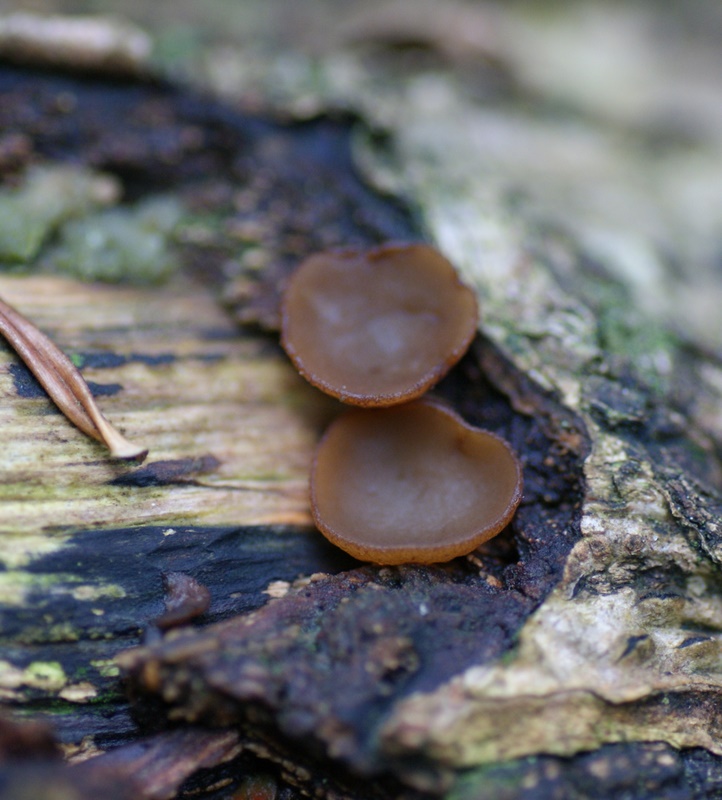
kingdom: Fungi
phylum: Ascomycota
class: Leotiomycetes
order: Helotiales
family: Rutstroemiaceae
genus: Rutstroemia
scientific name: Rutstroemia firma
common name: gren-brunskive
